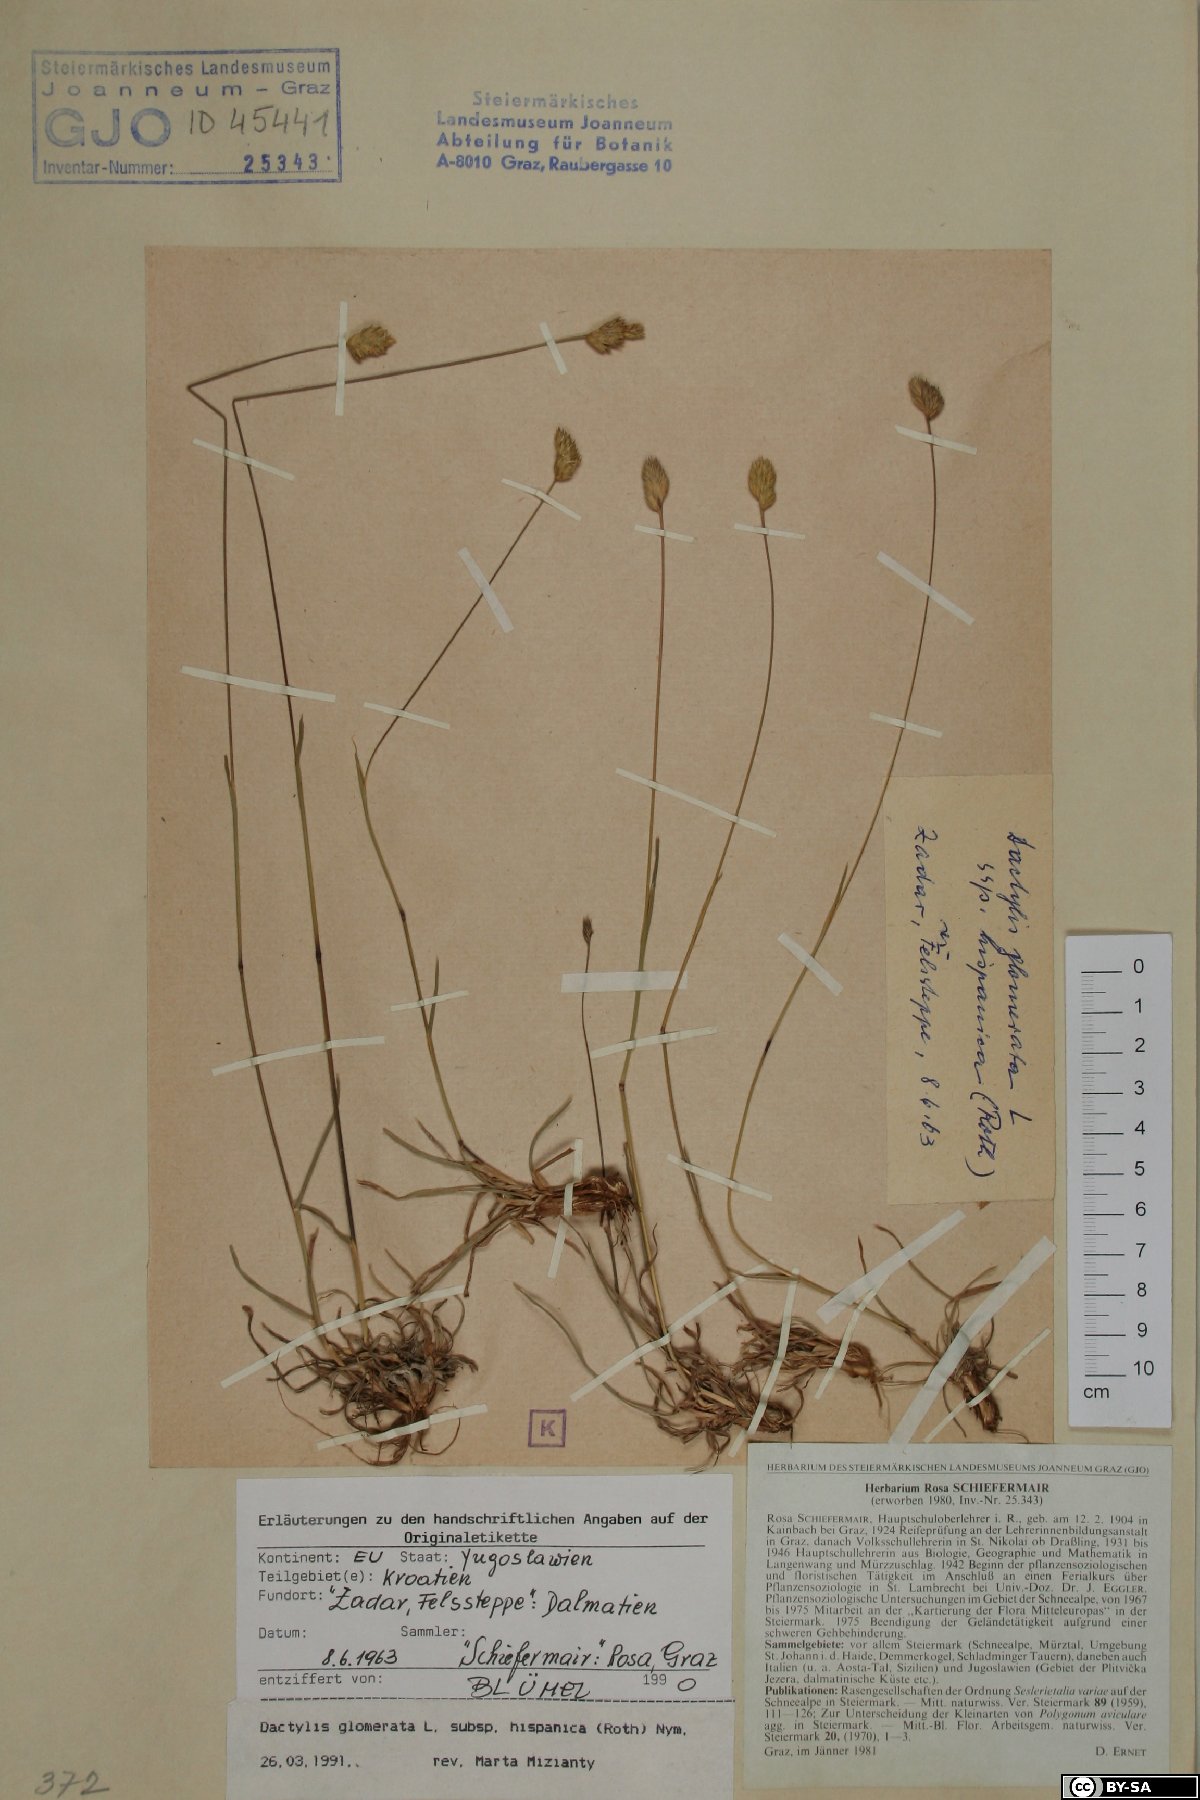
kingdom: Plantae
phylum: Tracheophyta
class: Liliopsida
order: Poales
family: Poaceae
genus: Dactylis
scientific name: Dactylis glomerata
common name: Orchardgrass
